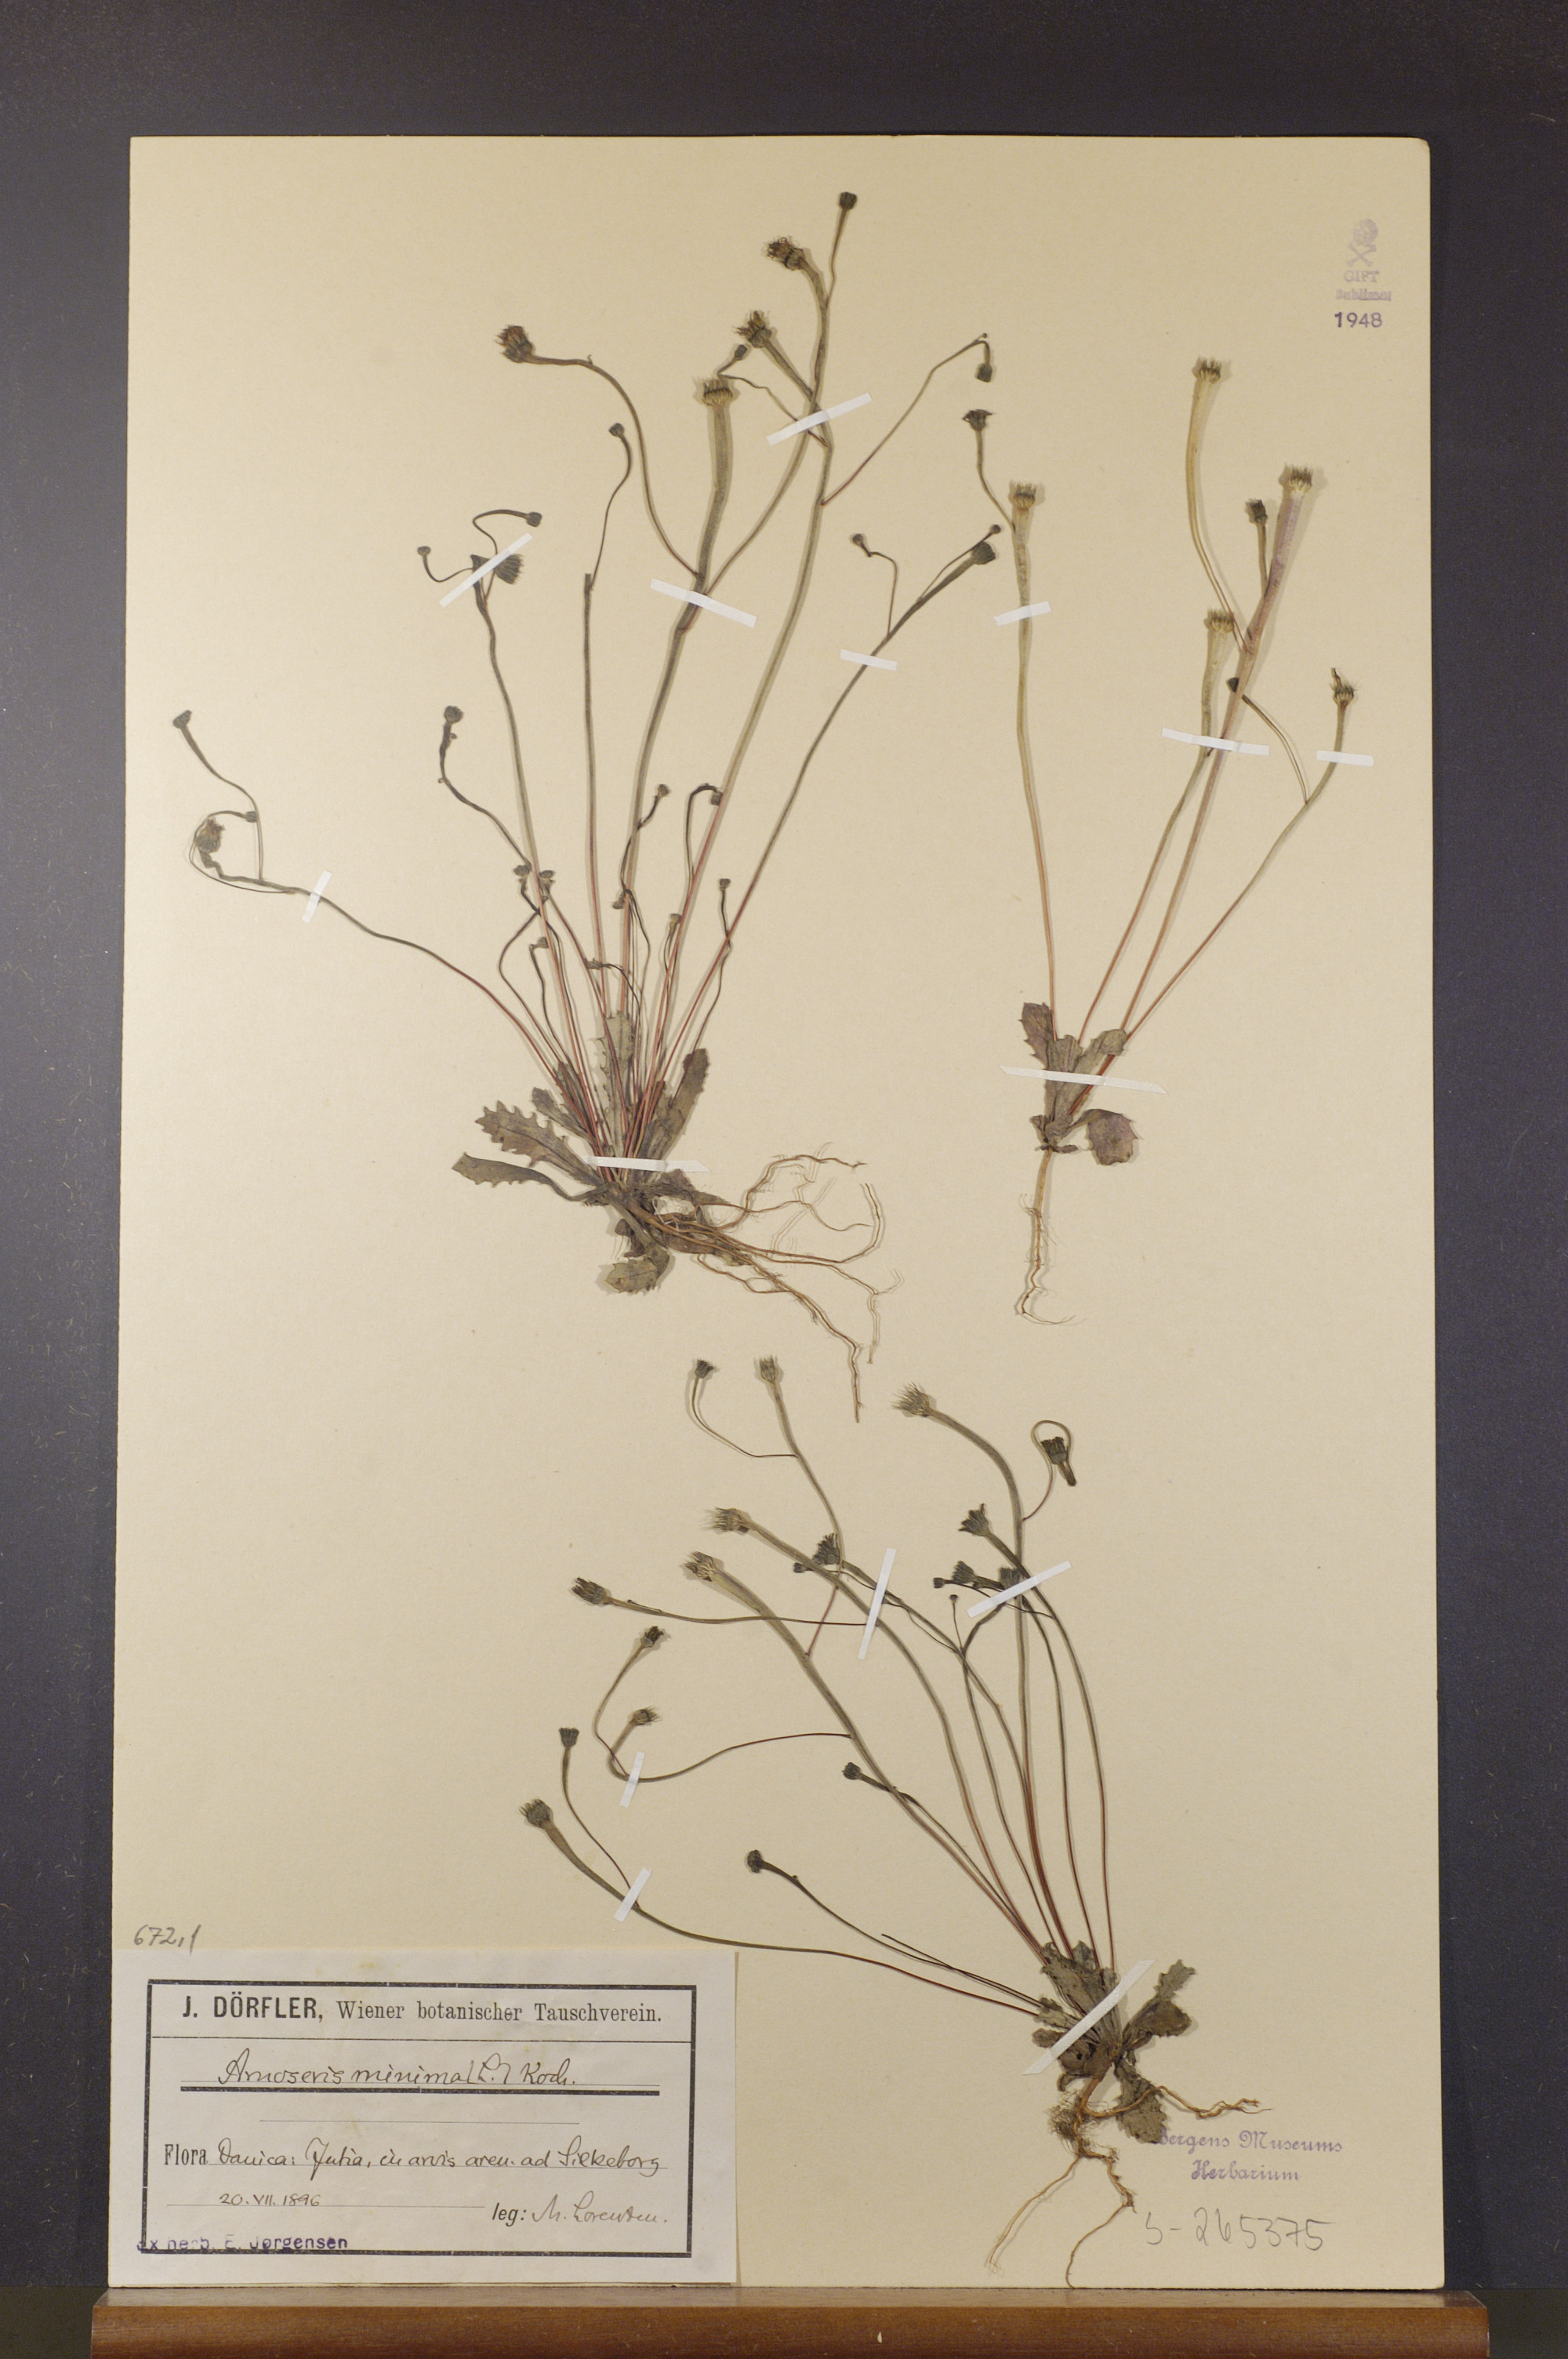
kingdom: Plantae
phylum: Tracheophyta
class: Magnoliopsida
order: Asterales
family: Asteraceae
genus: Arnoseris
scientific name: Arnoseris minima
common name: Lamb's succory
